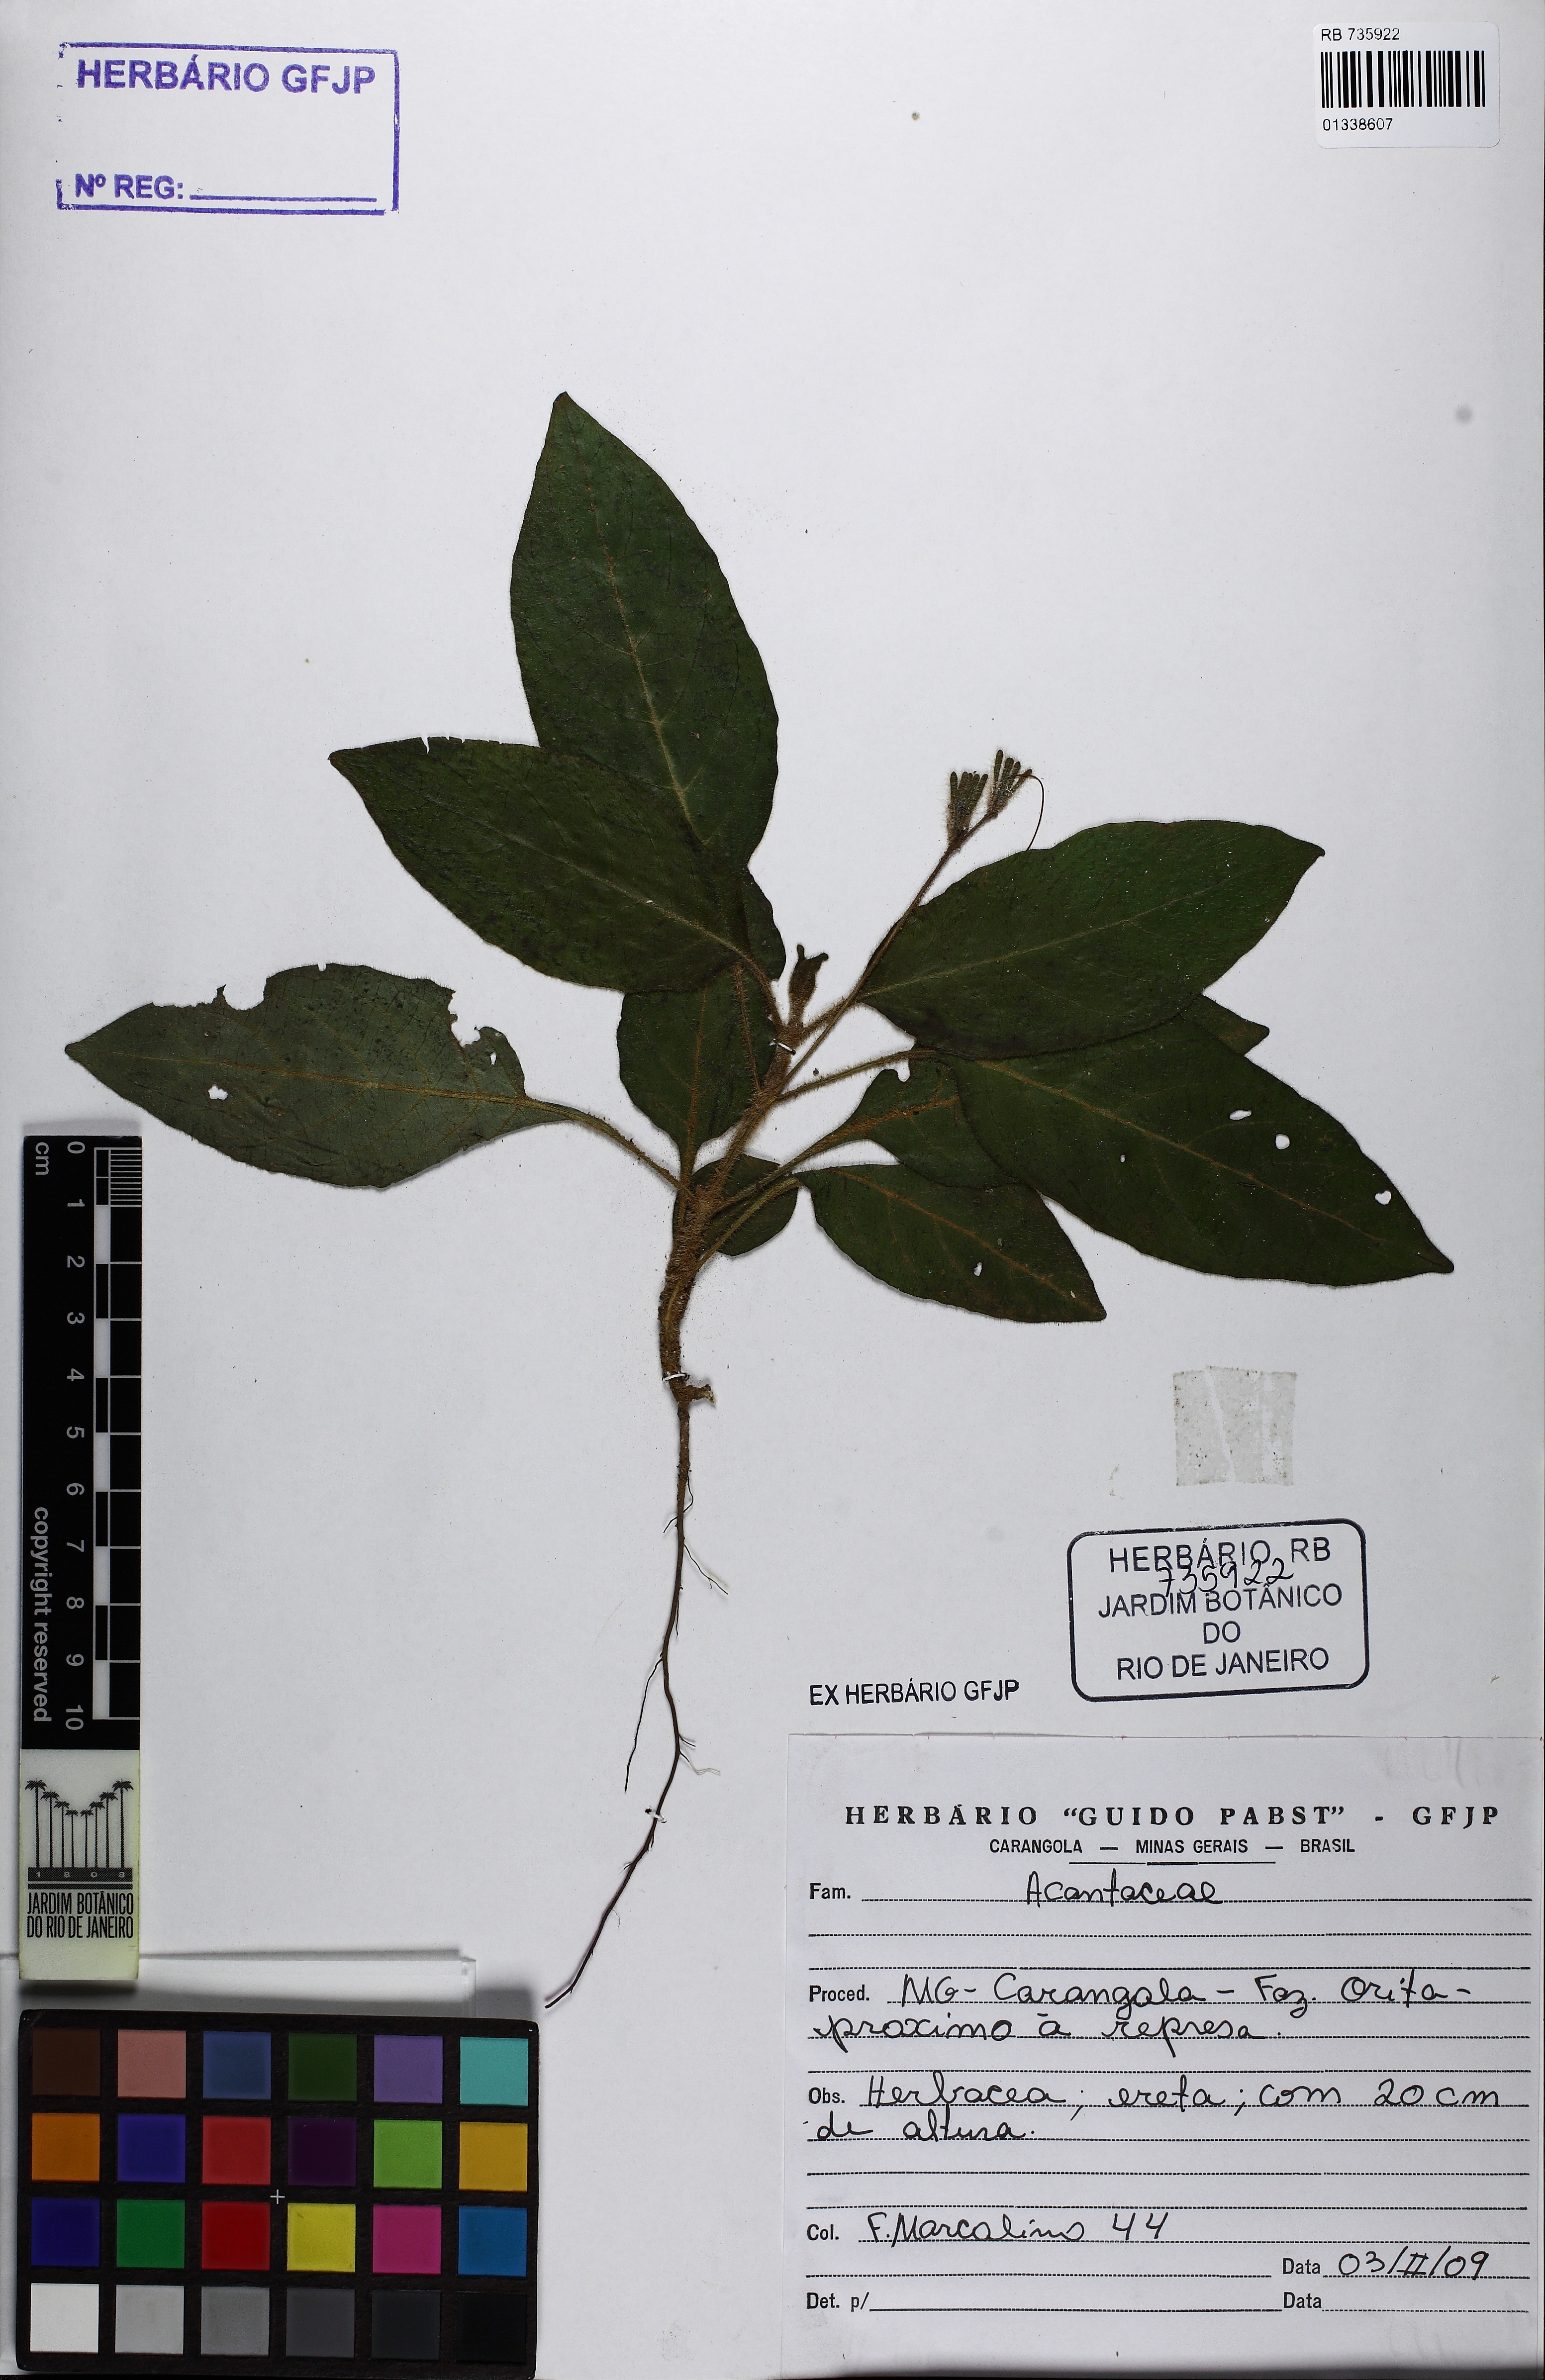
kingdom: Plantae
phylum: Tracheophyta
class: Magnoliopsida
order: Lamiales
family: Acanthaceae
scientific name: Acanthaceae
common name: Acanthaceae
